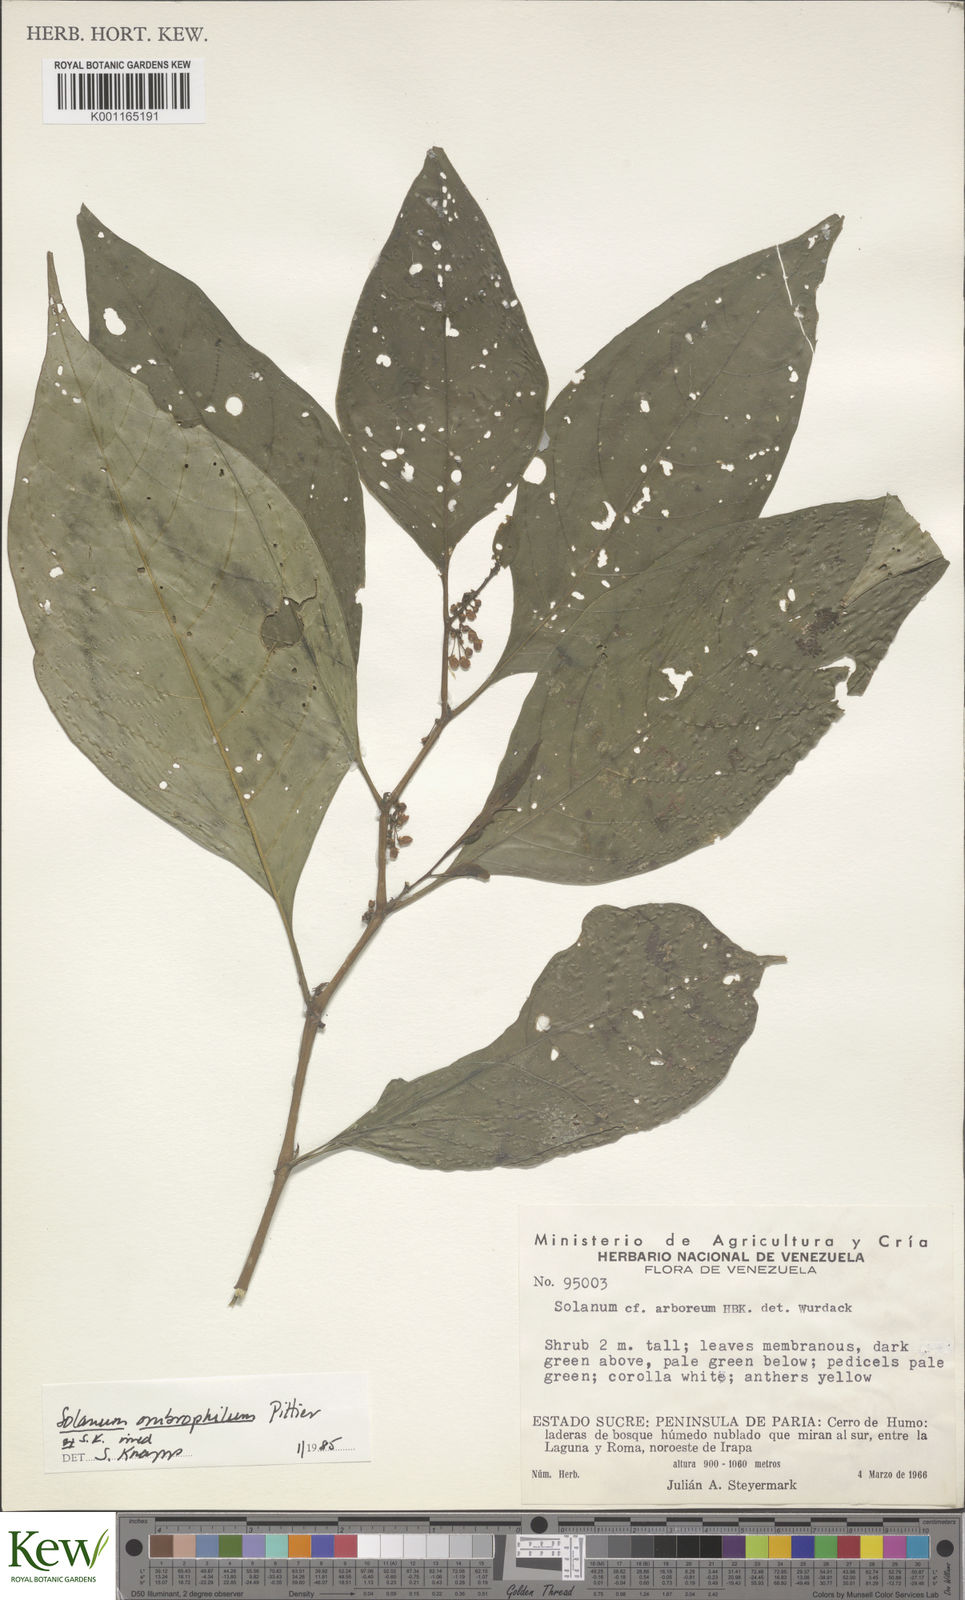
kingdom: Plantae
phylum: Tracheophyta
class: Magnoliopsida
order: Solanales
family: Solanaceae
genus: Solanum
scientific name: Solanum ombrophilum
